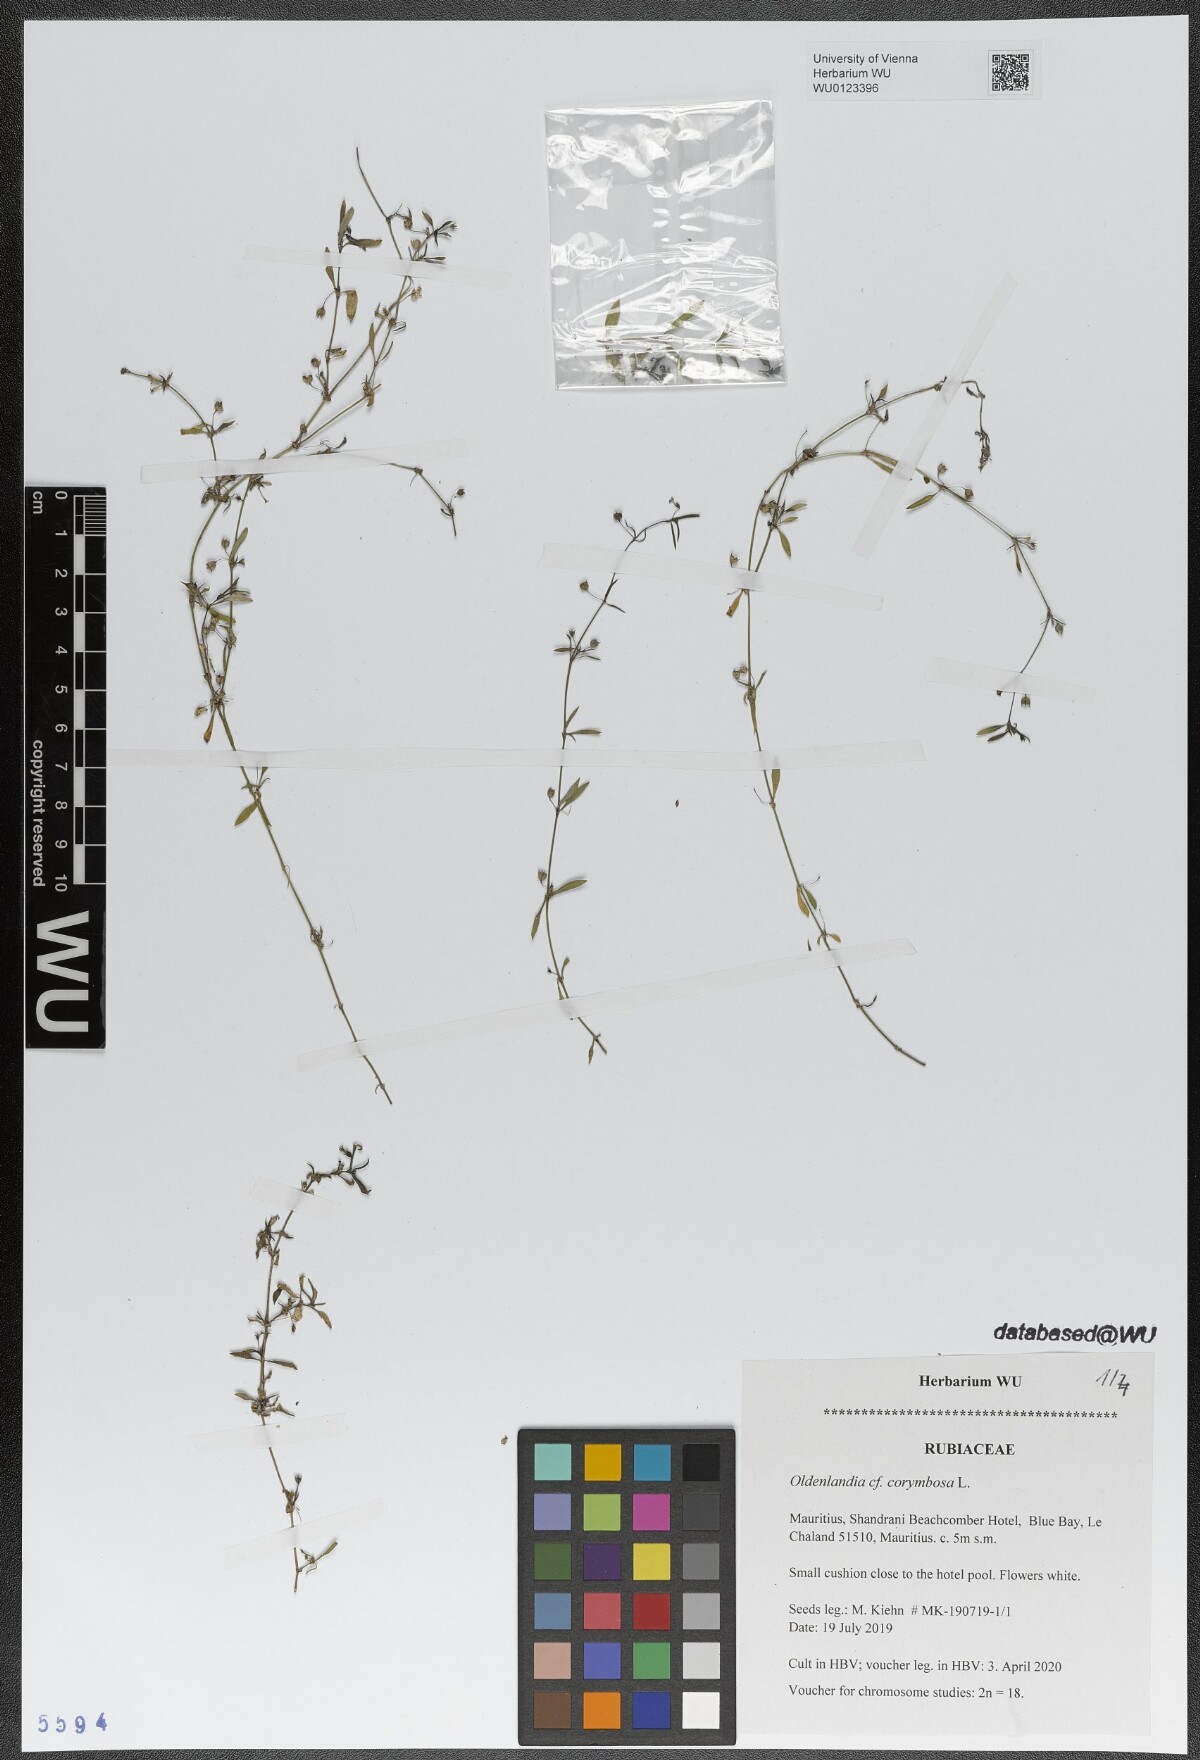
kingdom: Plantae
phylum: Tracheophyta
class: Magnoliopsida
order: Gentianales
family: Rubiaceae
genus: Oldenlandia
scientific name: Oldenlandia corymbosa
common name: Flat-top mille graines
